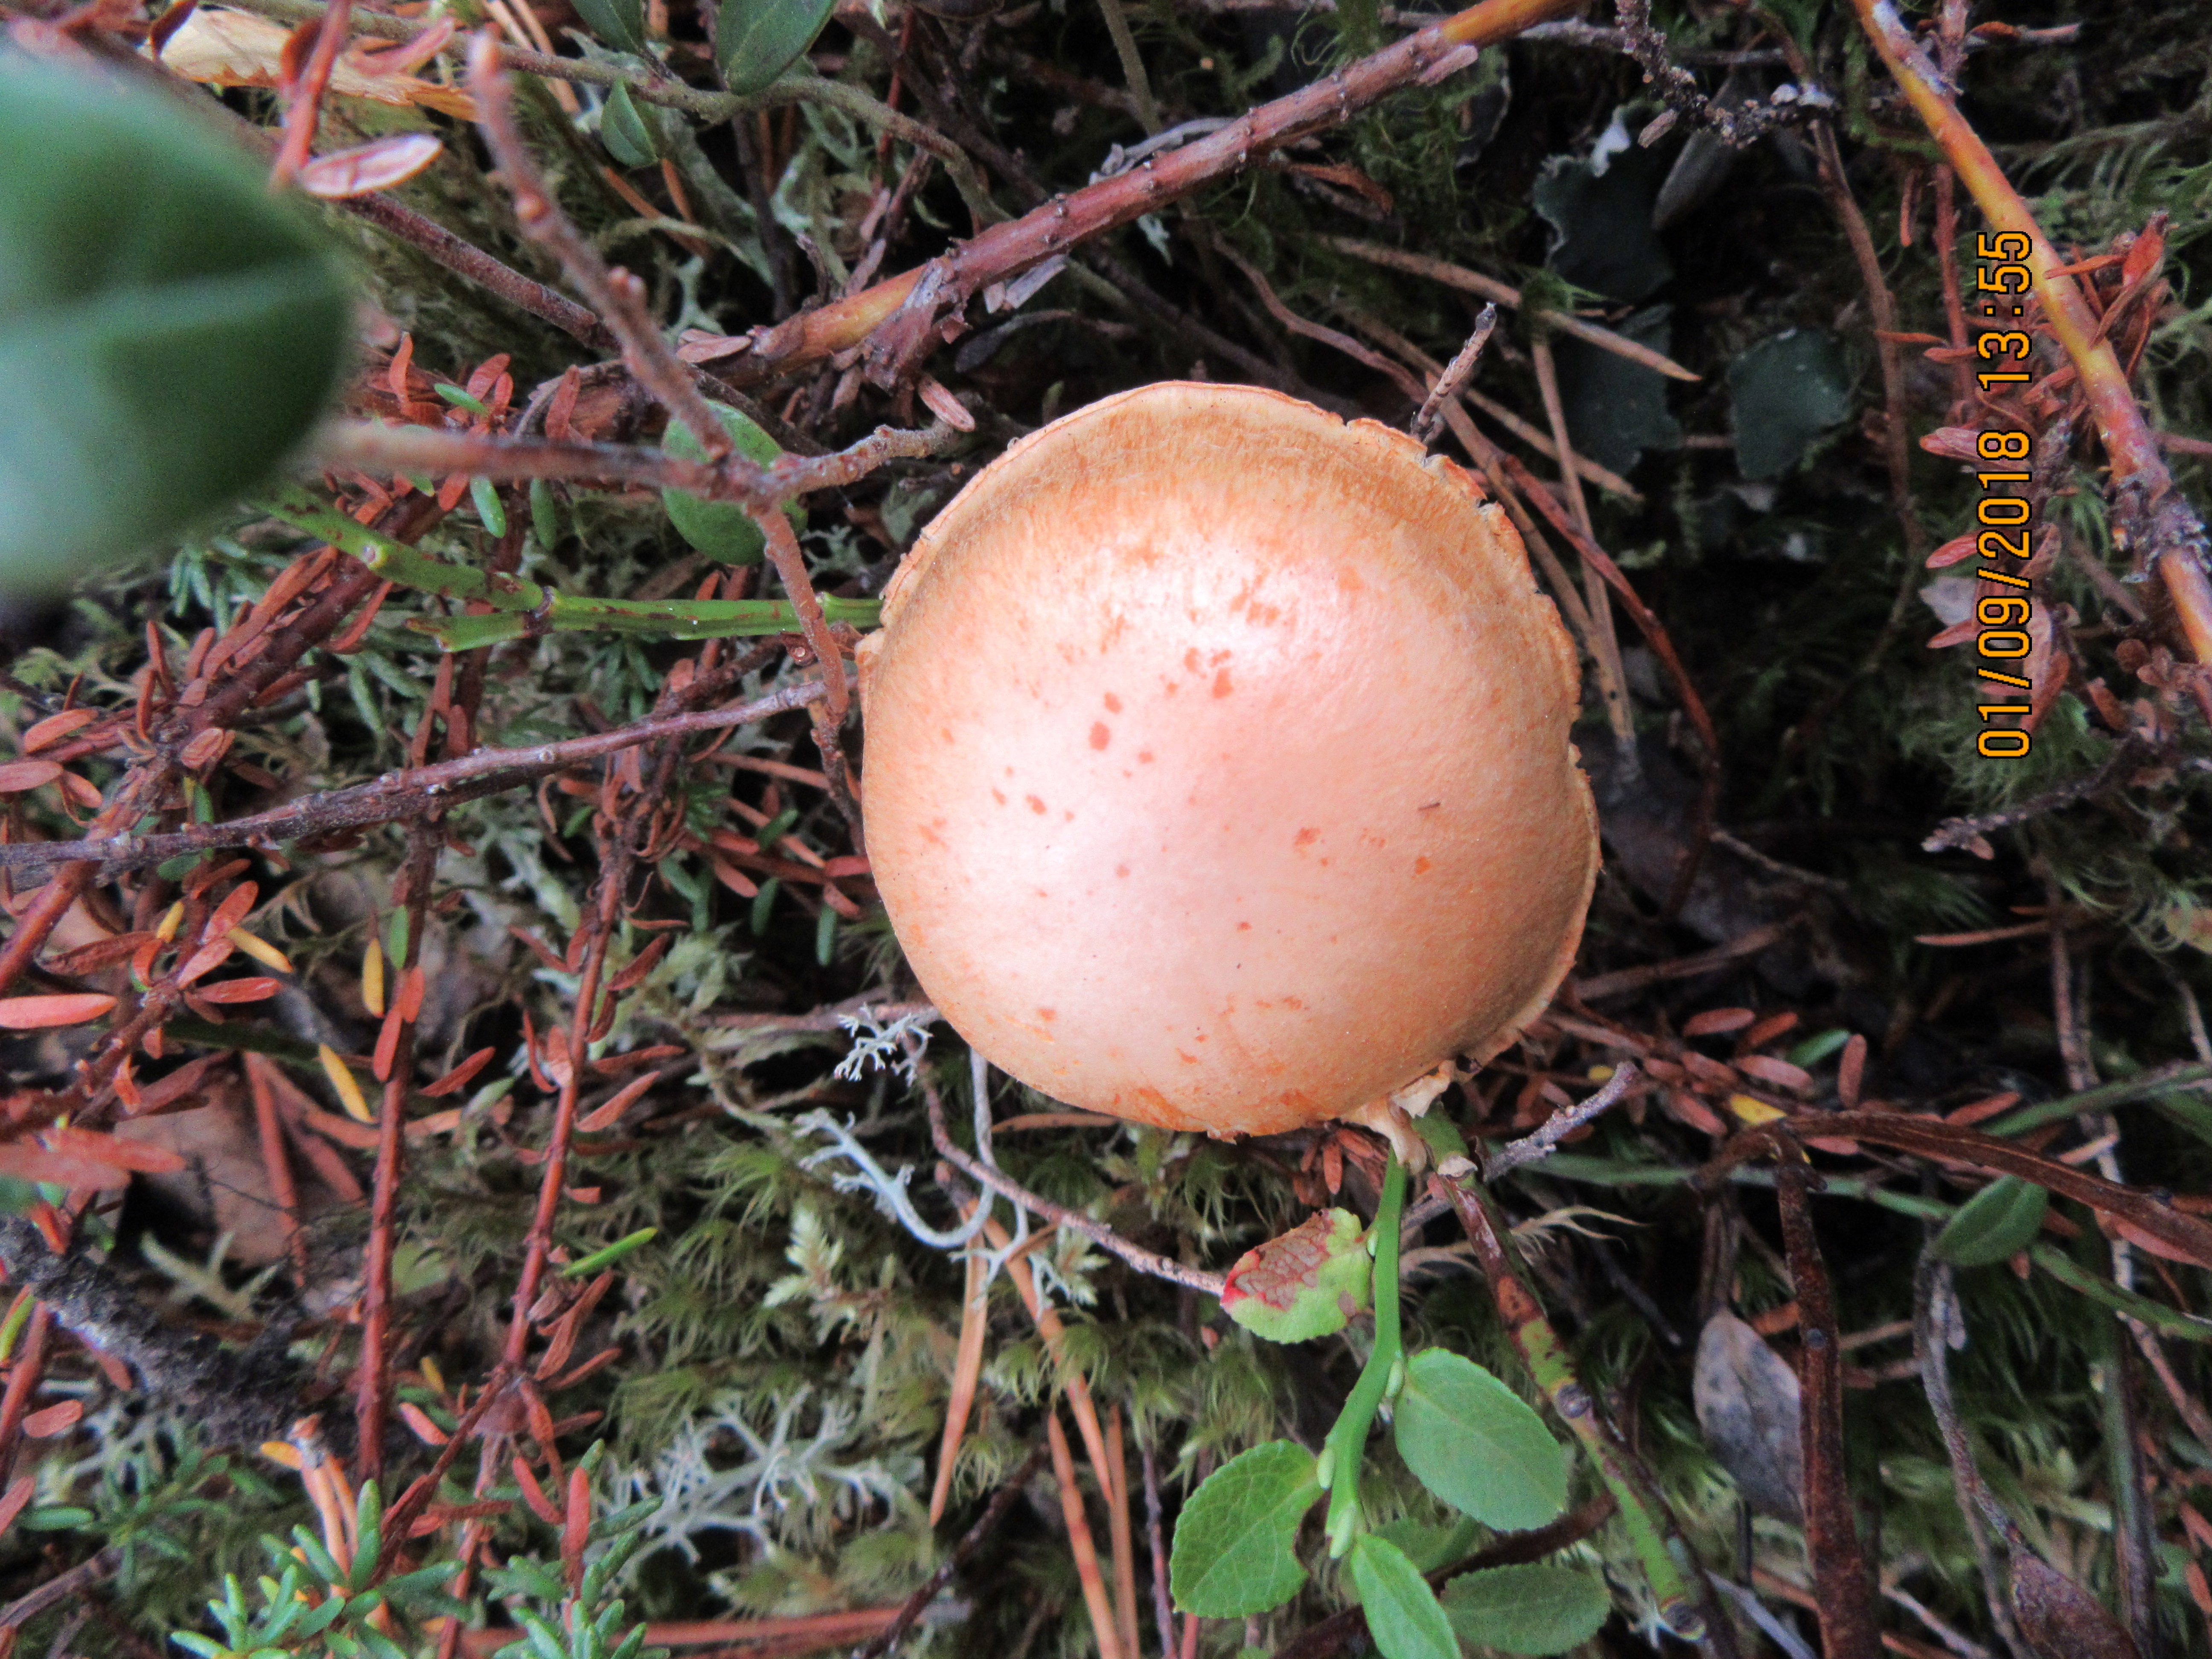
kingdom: Fungi
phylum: Basidiomycota
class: Agaricomycetes
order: Agaricales
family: Cortinariaceae
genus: Cortinarius
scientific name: Cortinarius
